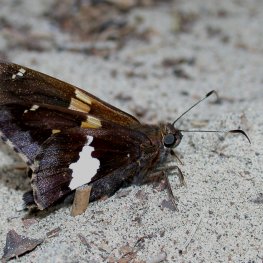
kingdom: Animalia
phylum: Arthropoda
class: Insecta
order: Lepidoptera
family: Hesperiidae
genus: Epargyreus
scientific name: Epargyreus clarus
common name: Silver-spotted Skipper
